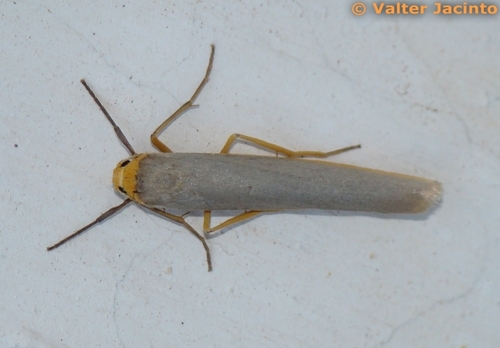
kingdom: Animalia
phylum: Arthropoda
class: Insecta
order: Lepidoptera
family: Erebidae
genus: Eilema
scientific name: Eilema caniola
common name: Hoary footman
